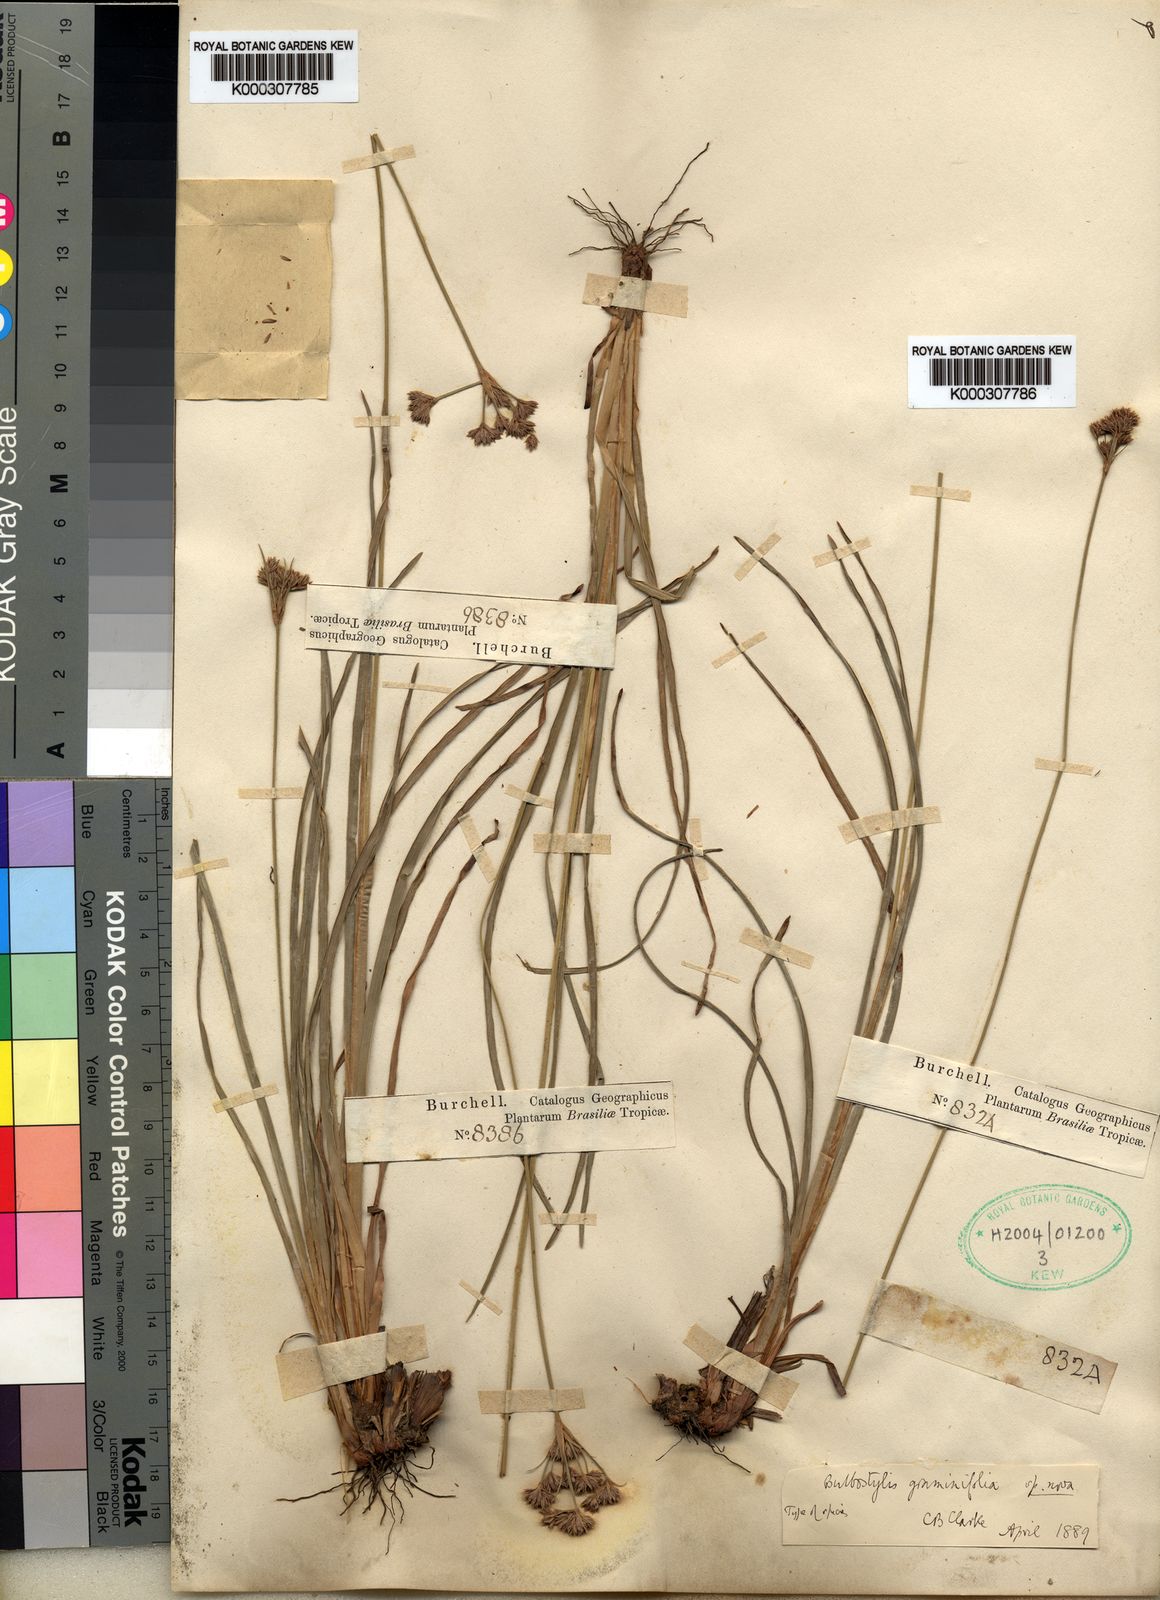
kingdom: Plantae
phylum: Tracheophyta
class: Liliopsida
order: Poales
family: Cyperaceae
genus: Bulbostylis
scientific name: Bulbostylis
